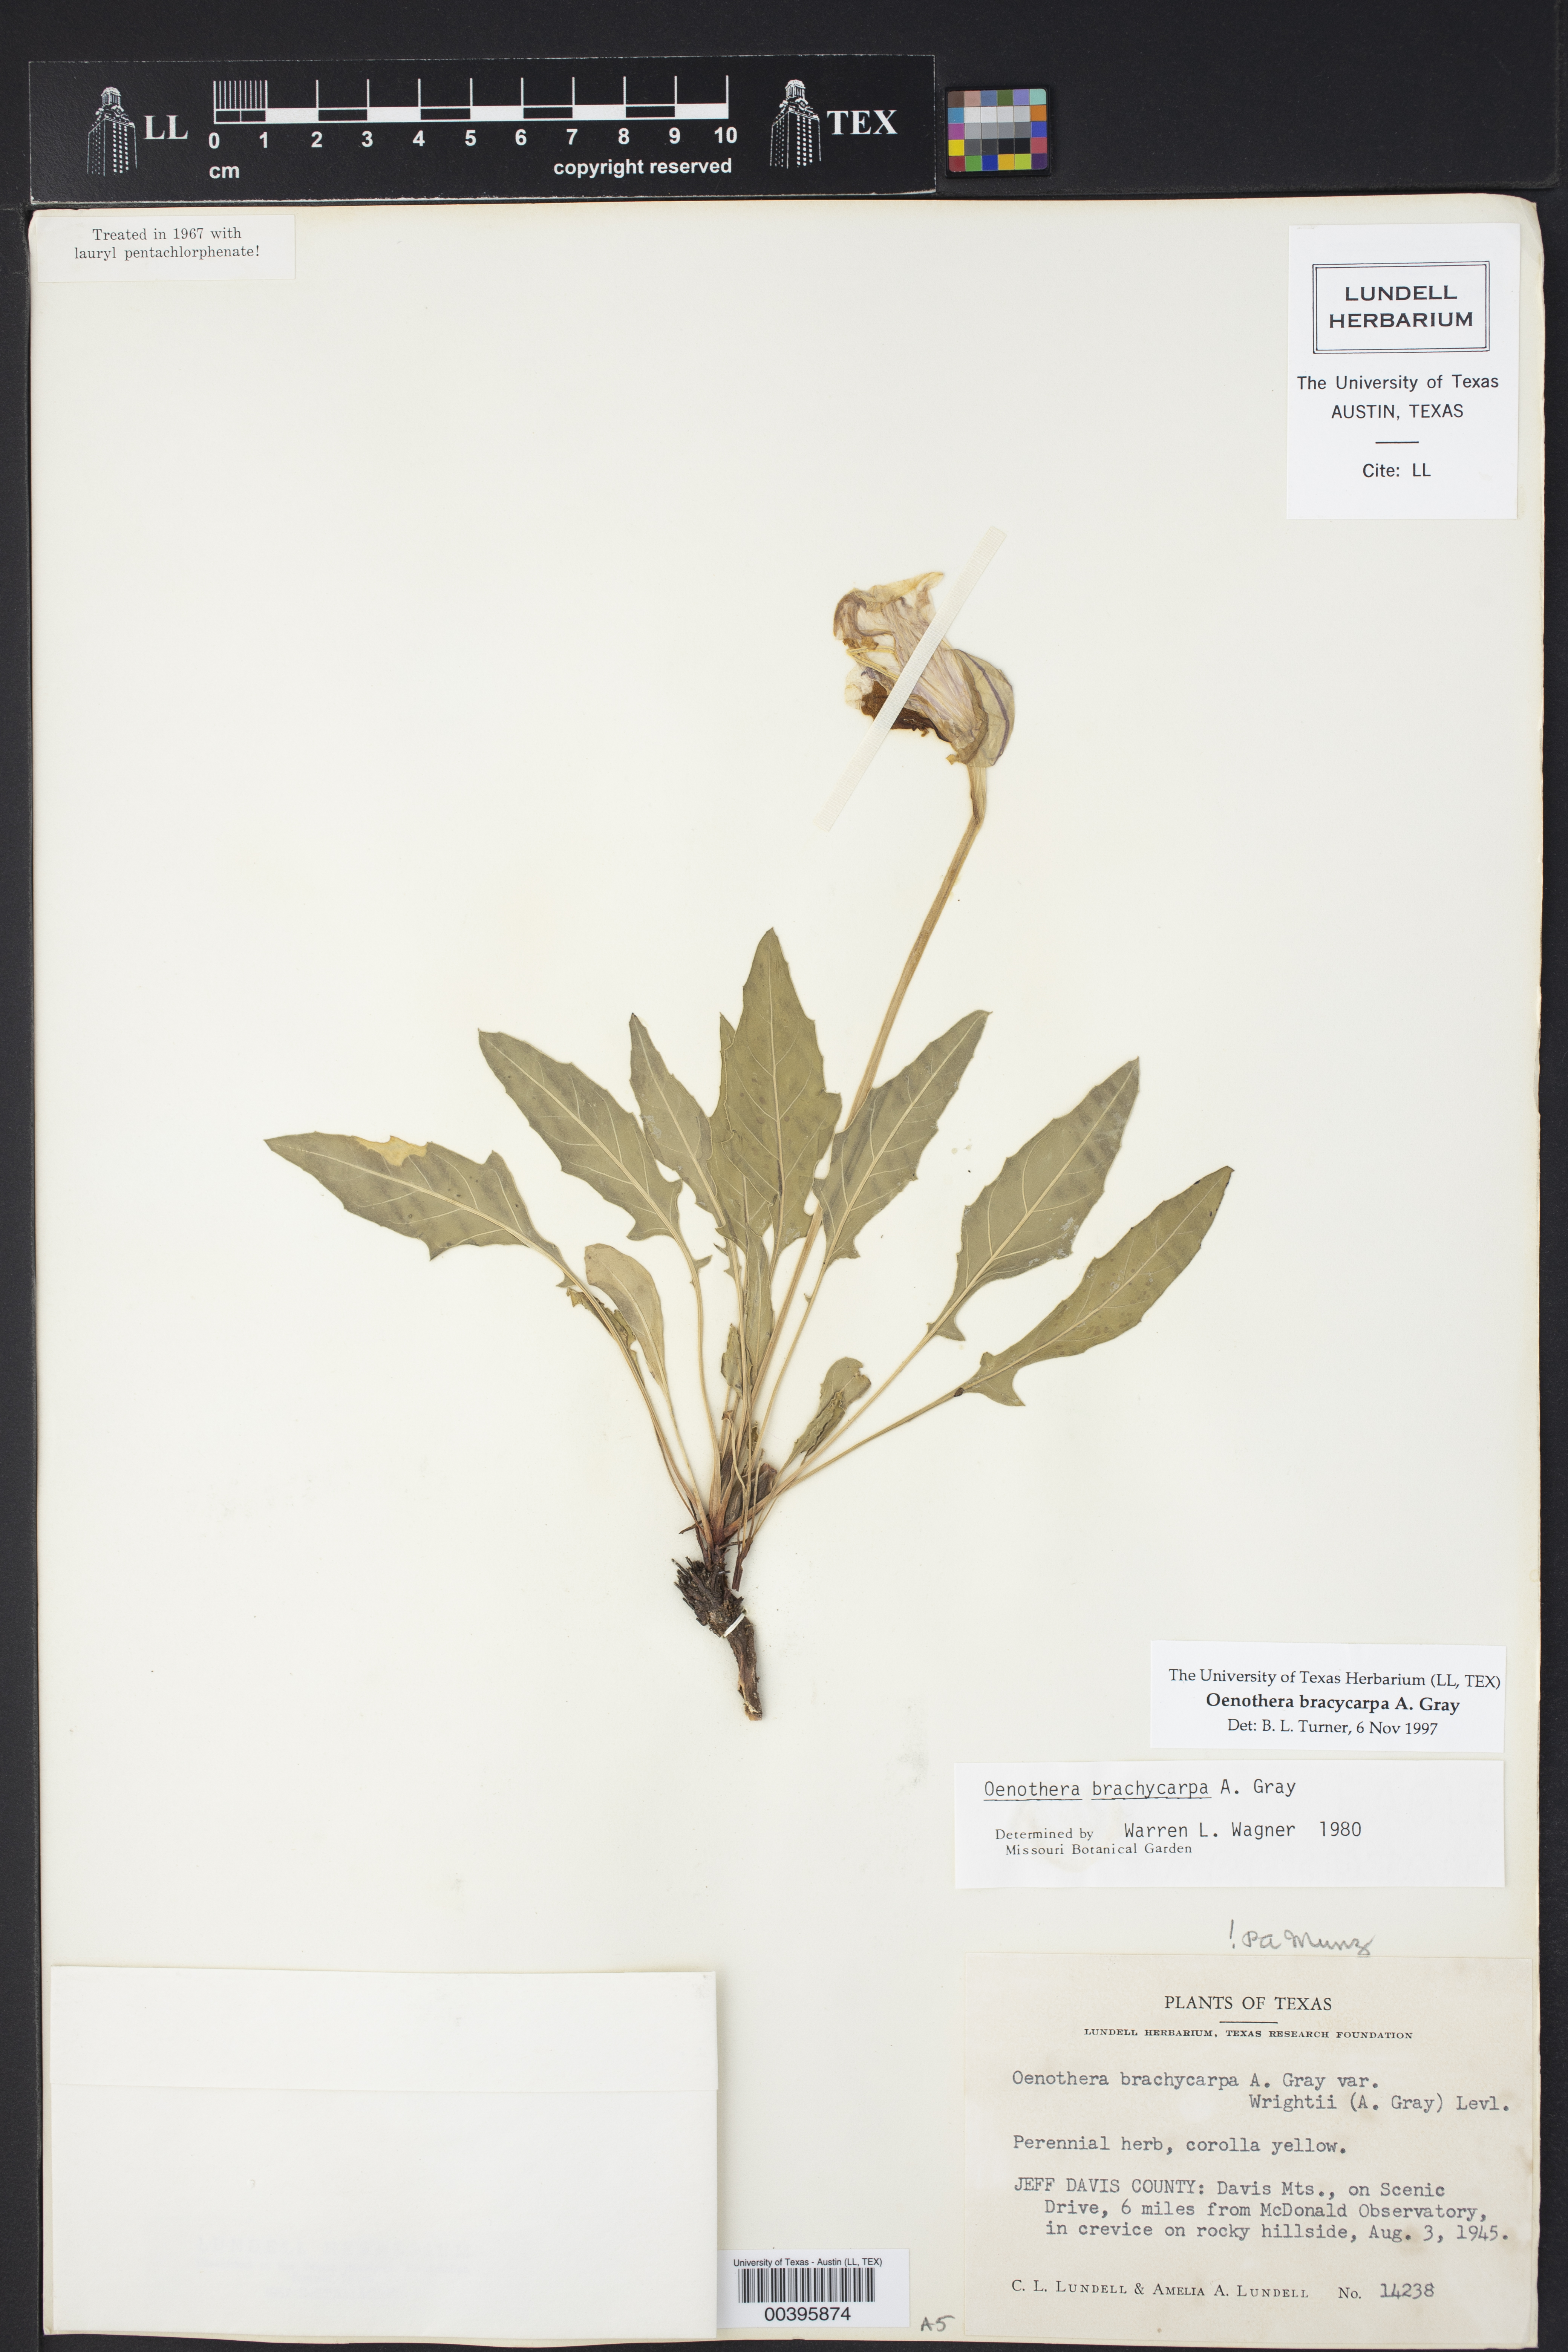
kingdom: Plantae
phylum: Tracheophyta
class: Magnoliopsida
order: Myrtales
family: Onagraceae
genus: Oenothera
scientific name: Oenothera brachycarpa
